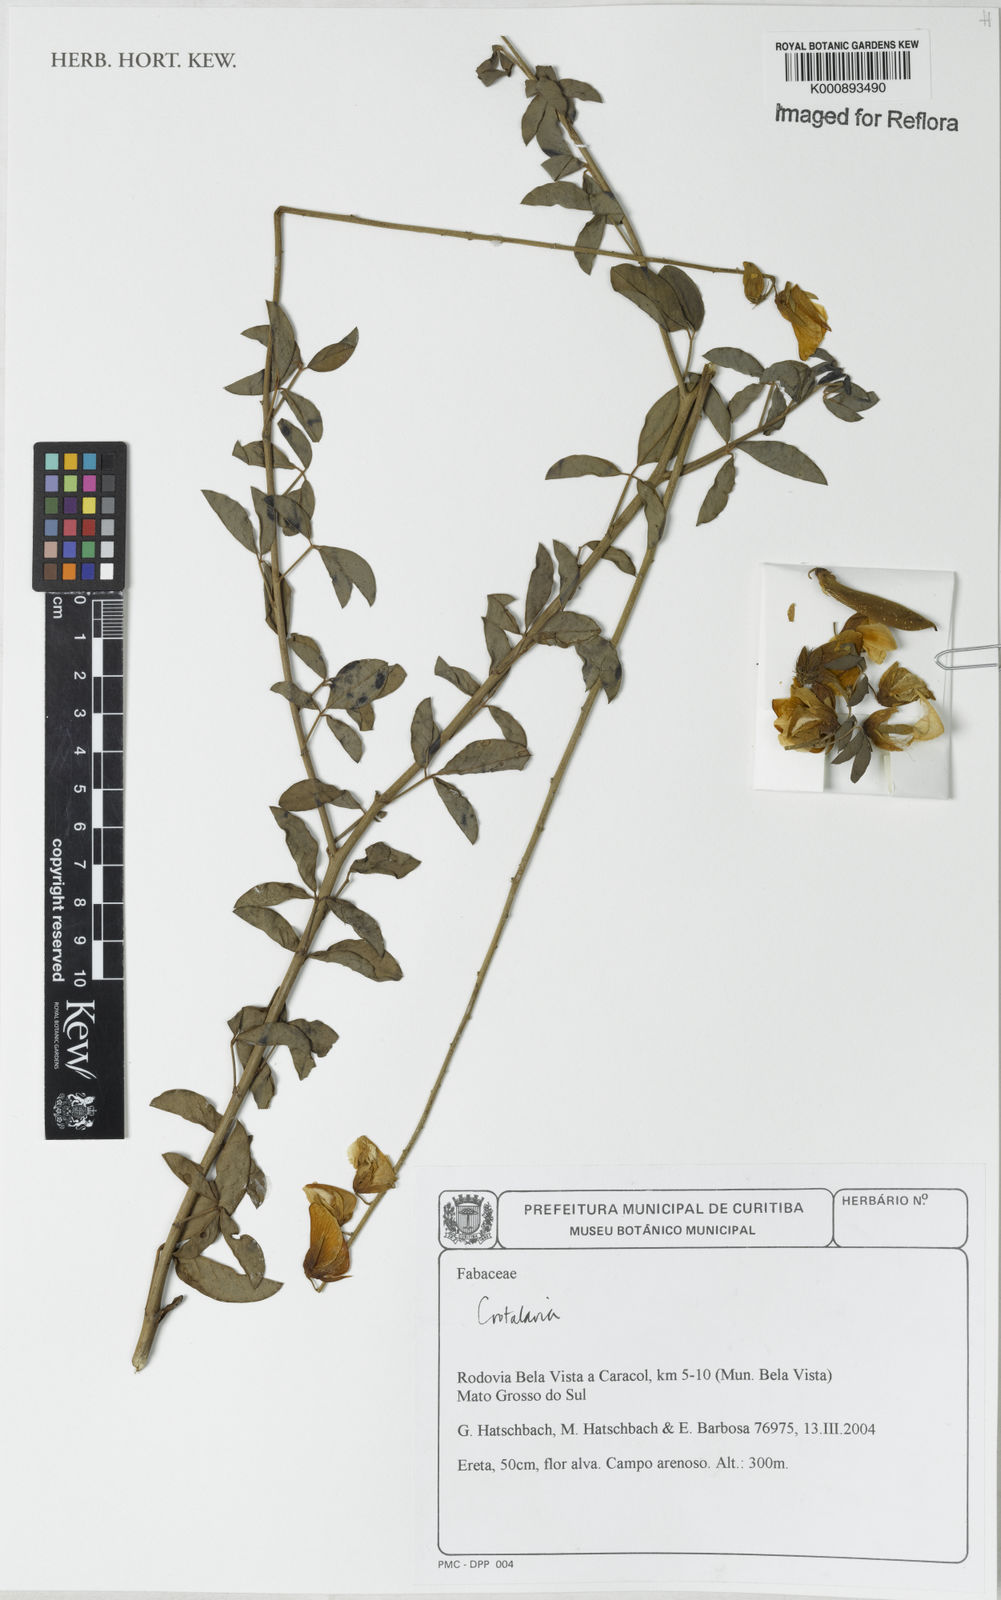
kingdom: Plantae
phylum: Tracheophyta
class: Magnoliopsida
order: Fabales
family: Fabaceae
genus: Crotalaria
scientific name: Crotalaria incana
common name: Shakeshake
